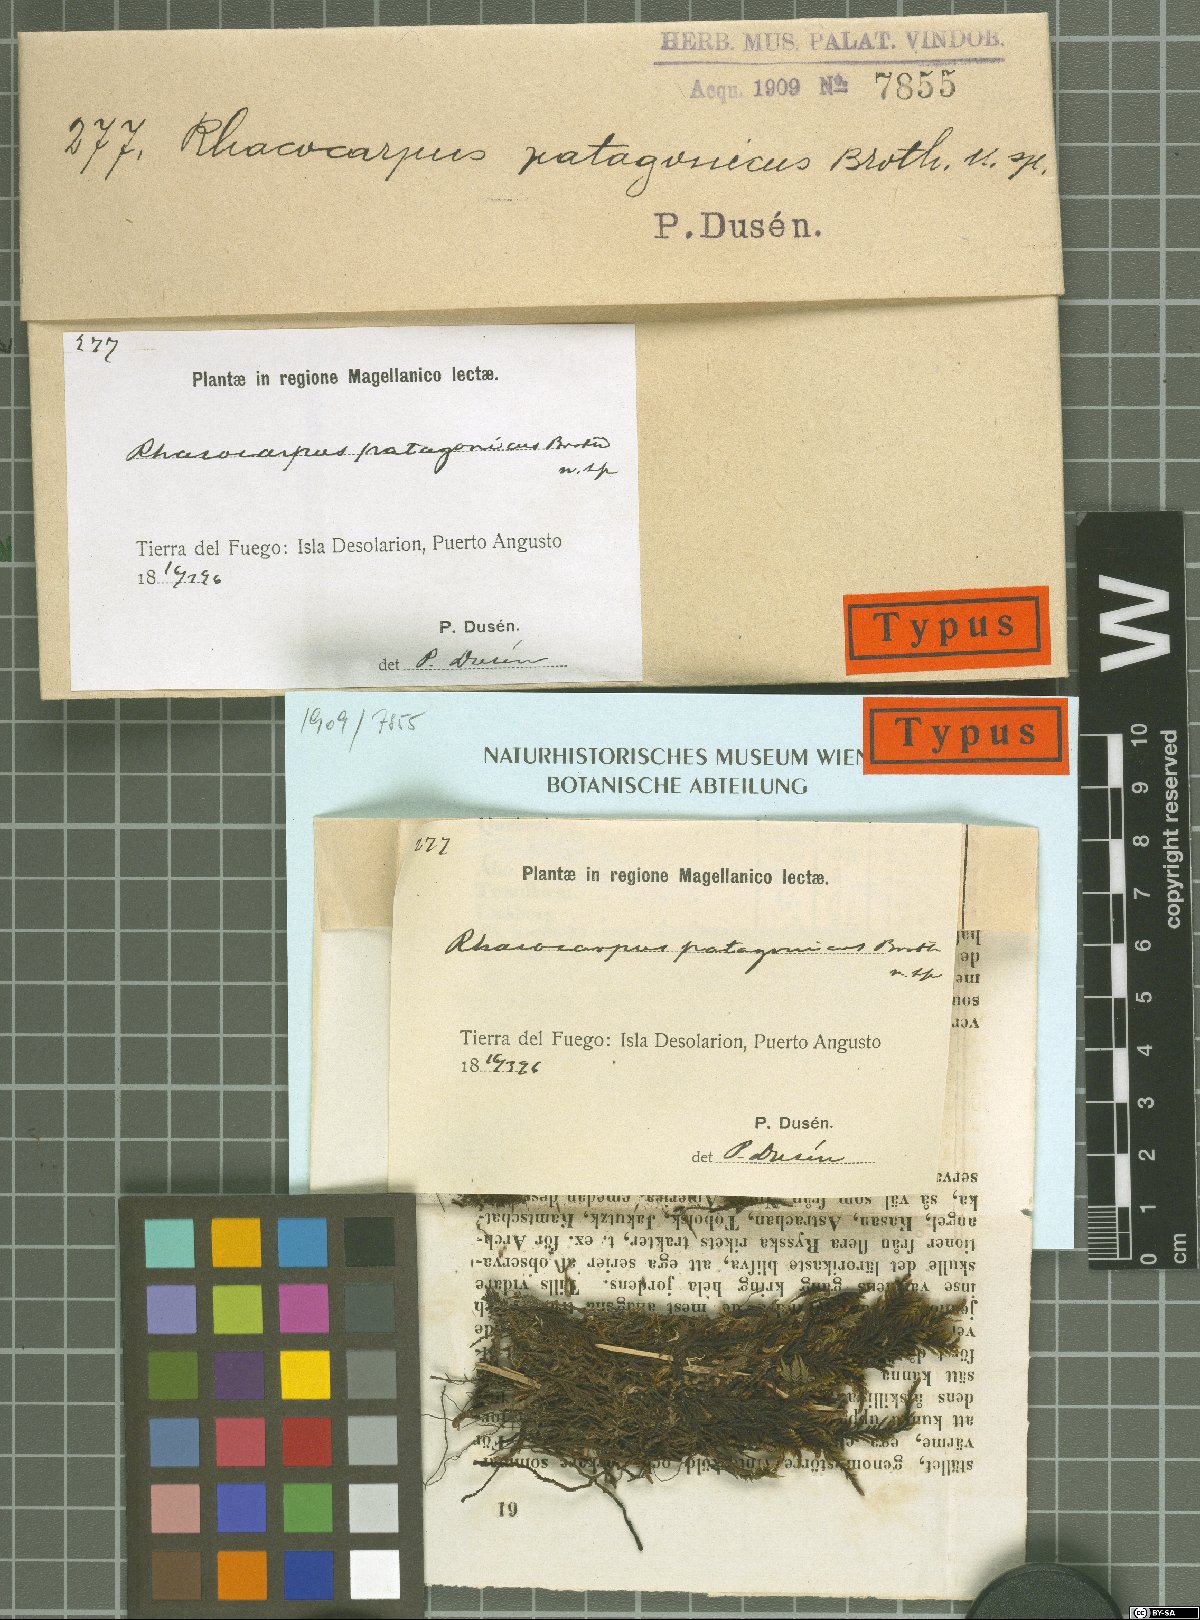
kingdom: Plantae
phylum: Bryophyta
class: Bryopsida
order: Hedwigiales
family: Hedwigiaceae
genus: Pararhacocarpus
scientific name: Pararhacocarpus patagonicus
